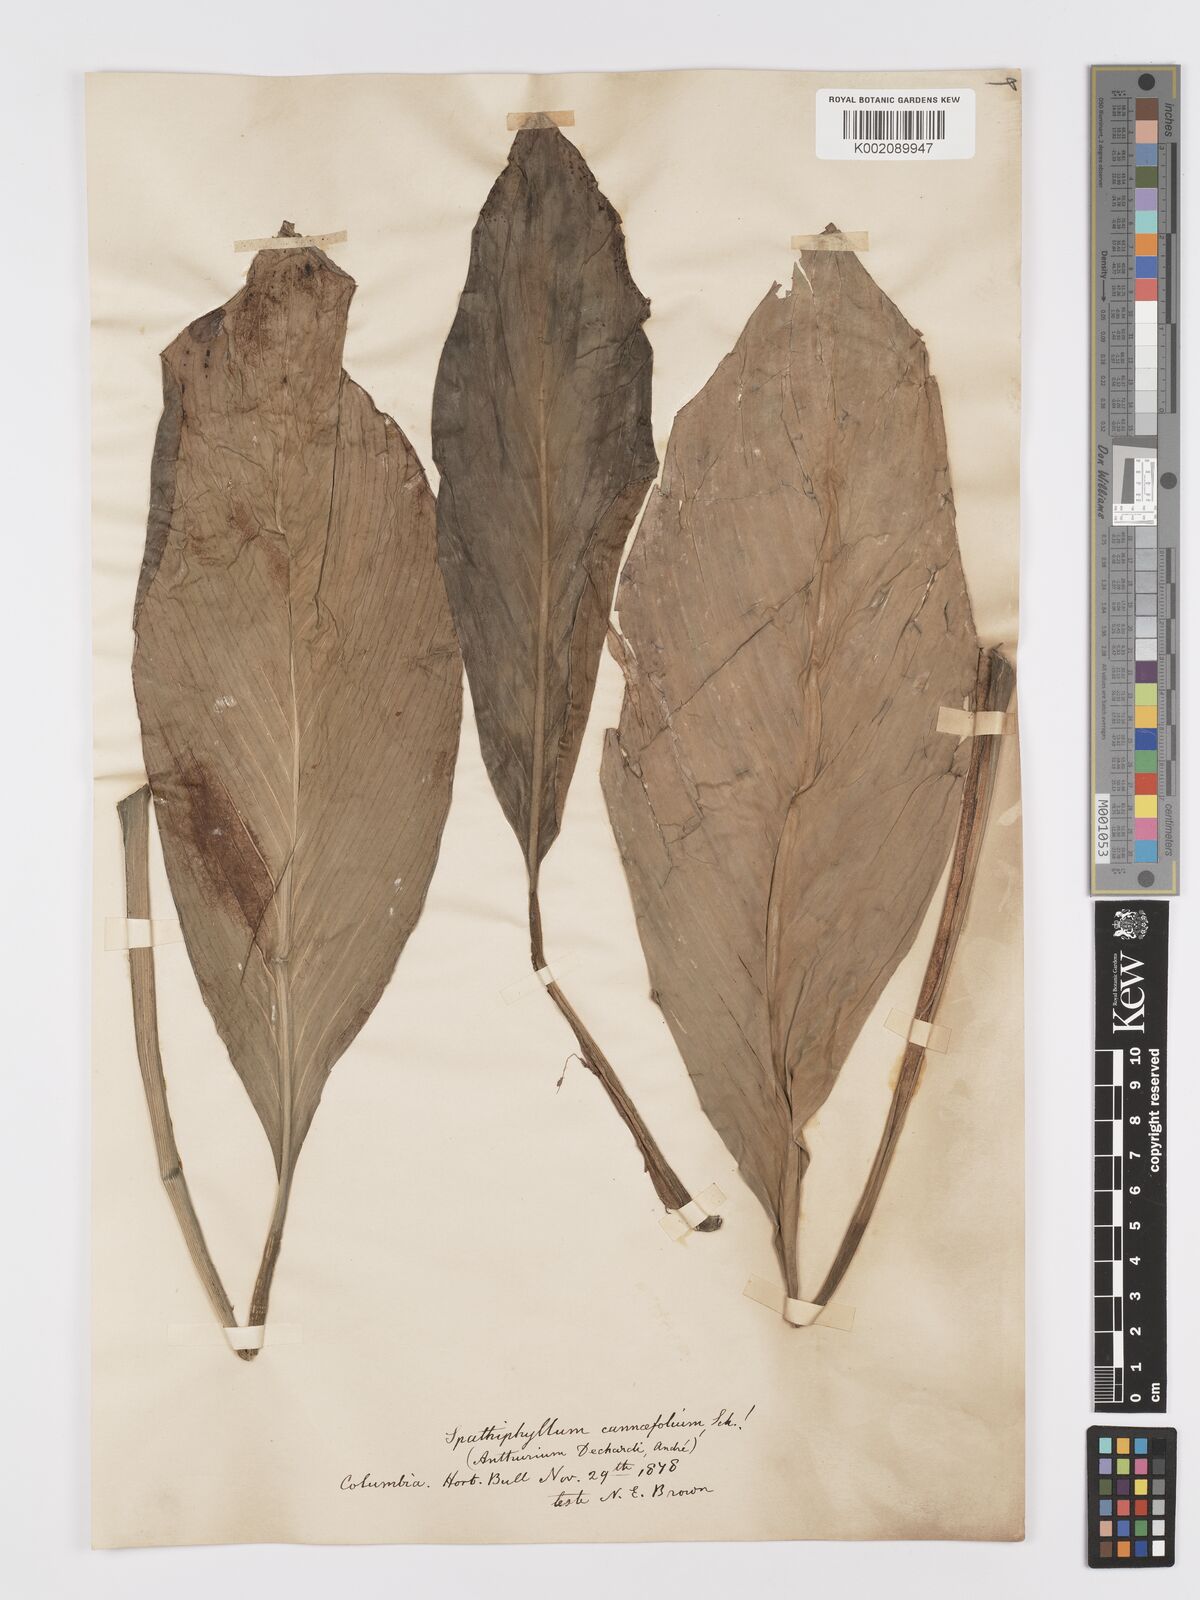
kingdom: Plantae
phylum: Tracheophyta
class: Liliopsida
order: Alismatales
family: Araceae
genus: Spathiphyllum
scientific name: Spathiphyllum cannifolium
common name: Spatheflower
